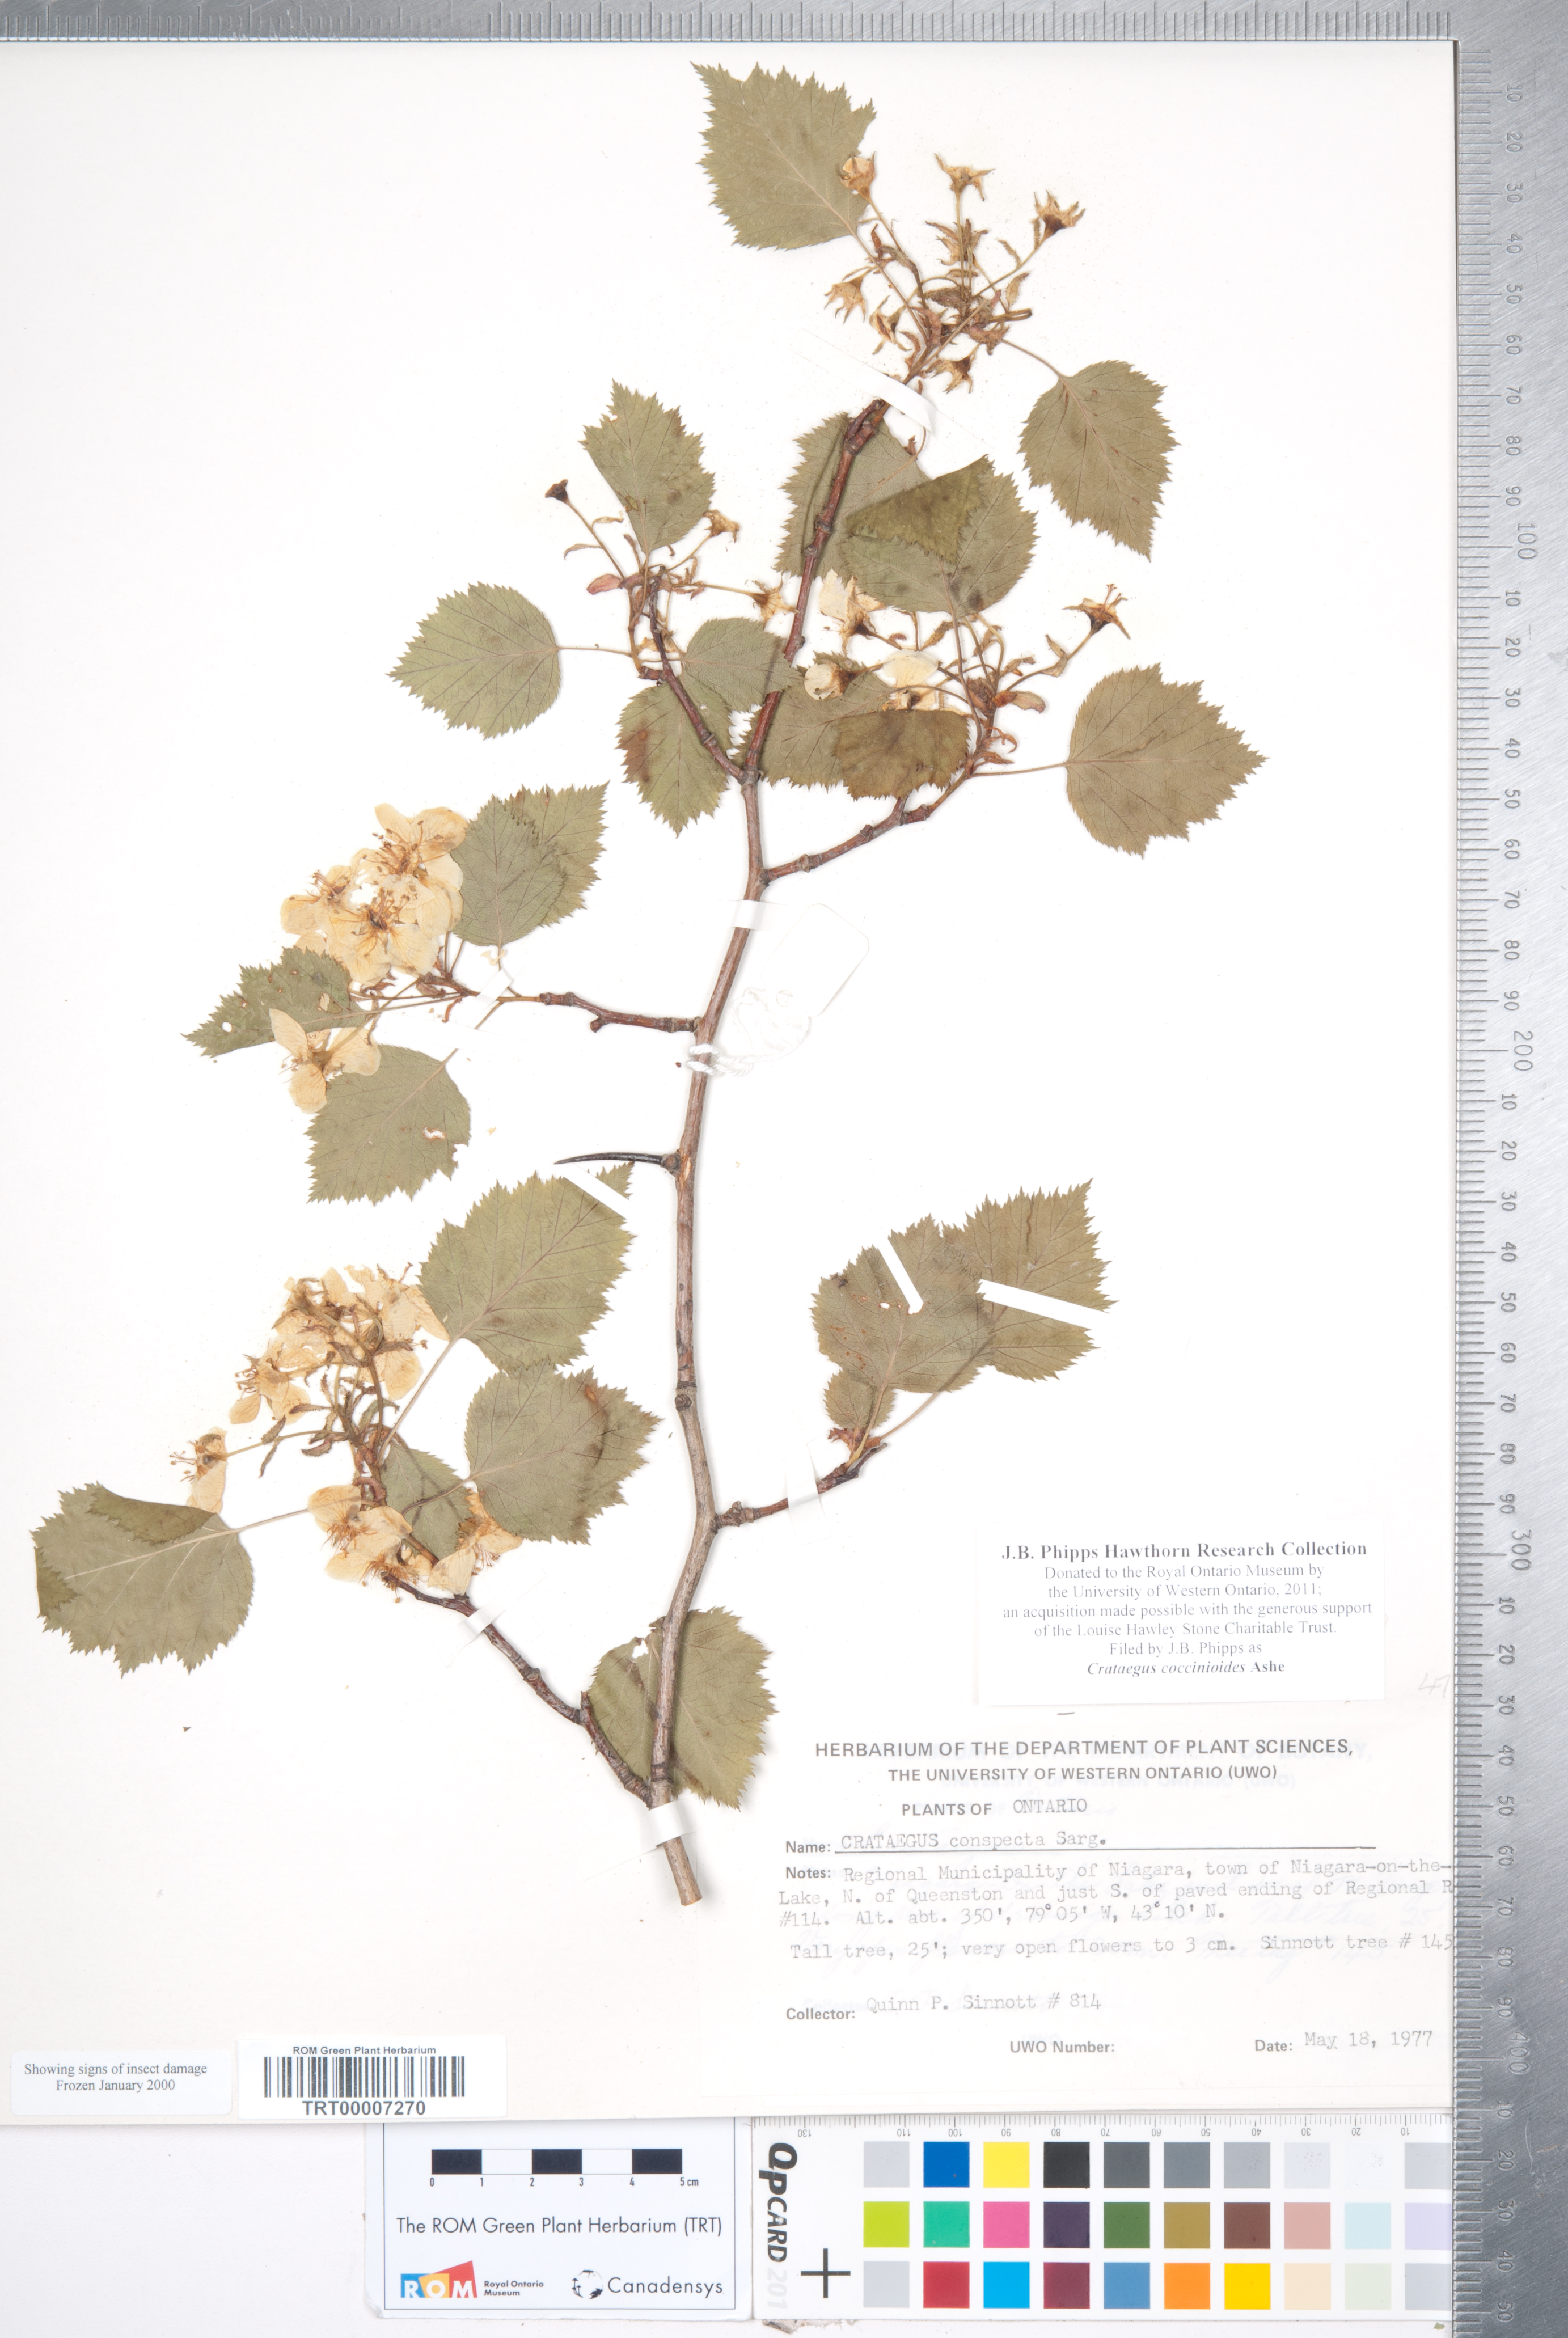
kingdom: Plantae
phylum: Tracheophyta
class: Magnoliopsida
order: Rosales
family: Rosaceae
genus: Crataegus
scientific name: Crataegus coccinioides
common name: Large-flowered cockspurthorn
